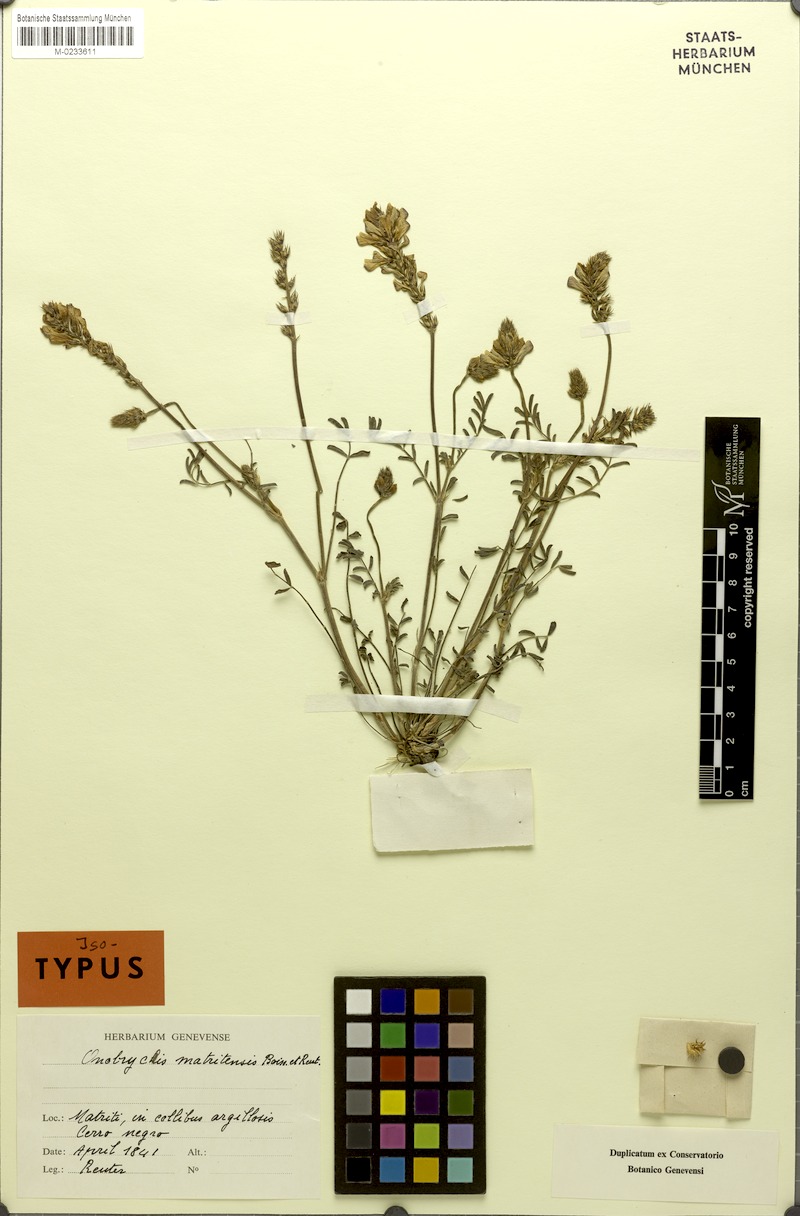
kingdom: Plantae
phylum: Tracheophyta
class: Magnoliopsida
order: Fabales
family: Fabaceae
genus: Onobrychis
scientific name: Onobrychis humilis
